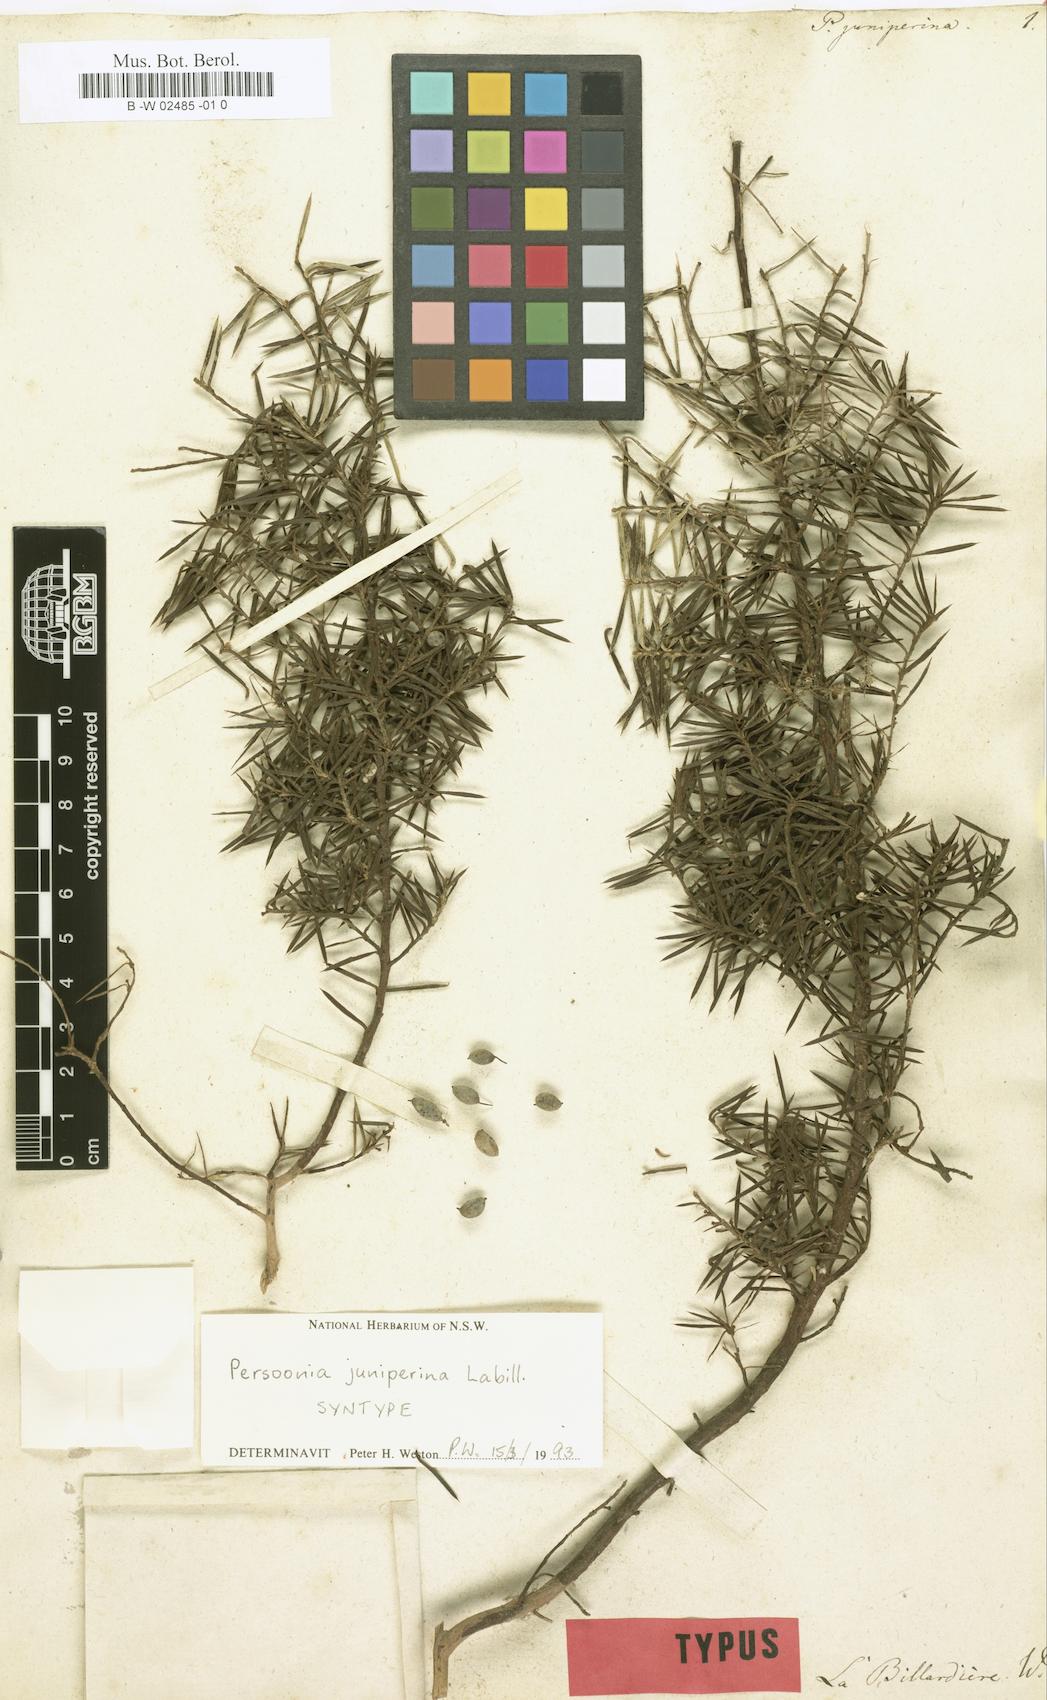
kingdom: Plantae
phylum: Tracheophyta
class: Magnoliopsida
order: Proteales
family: Proteaceae
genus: Persoonia
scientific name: Persoonia juniperina
